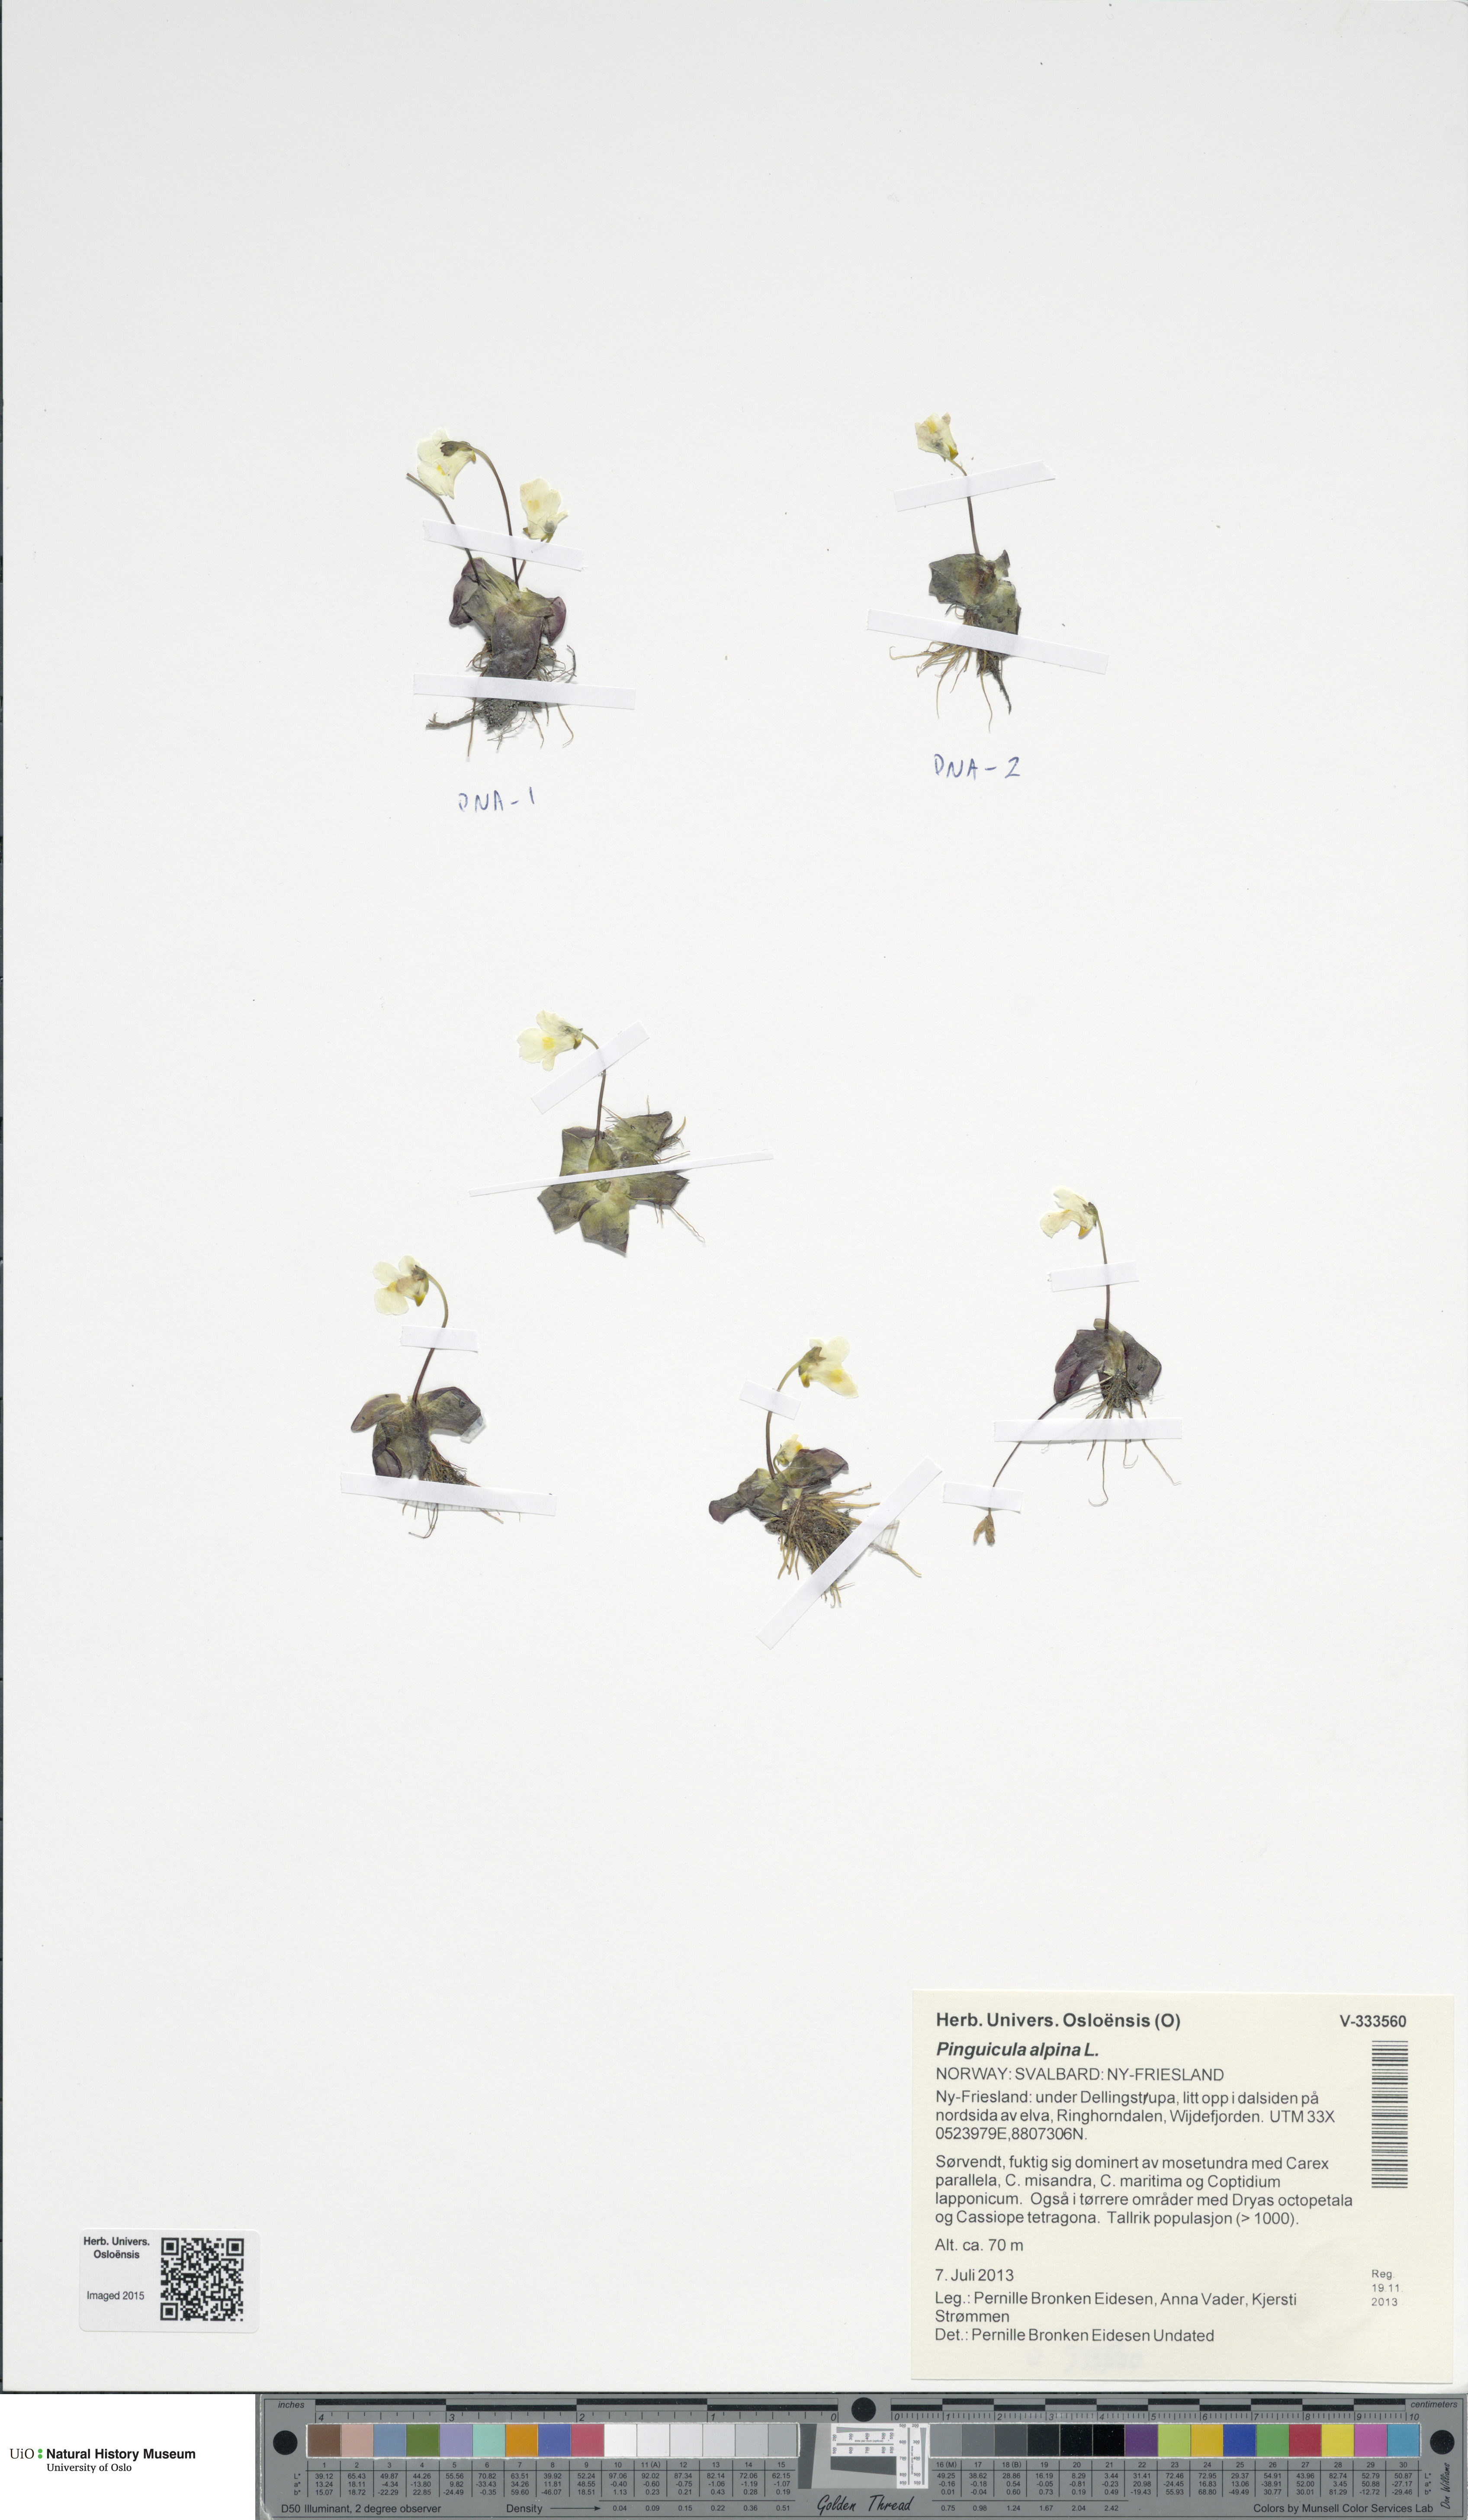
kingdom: Plantae
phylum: Tracheophyta
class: Magnoliopsida
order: Lamiales
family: Lentibulariaceae
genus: Pinguicula
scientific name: Pinguicula alpina
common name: Alpine butterwort
